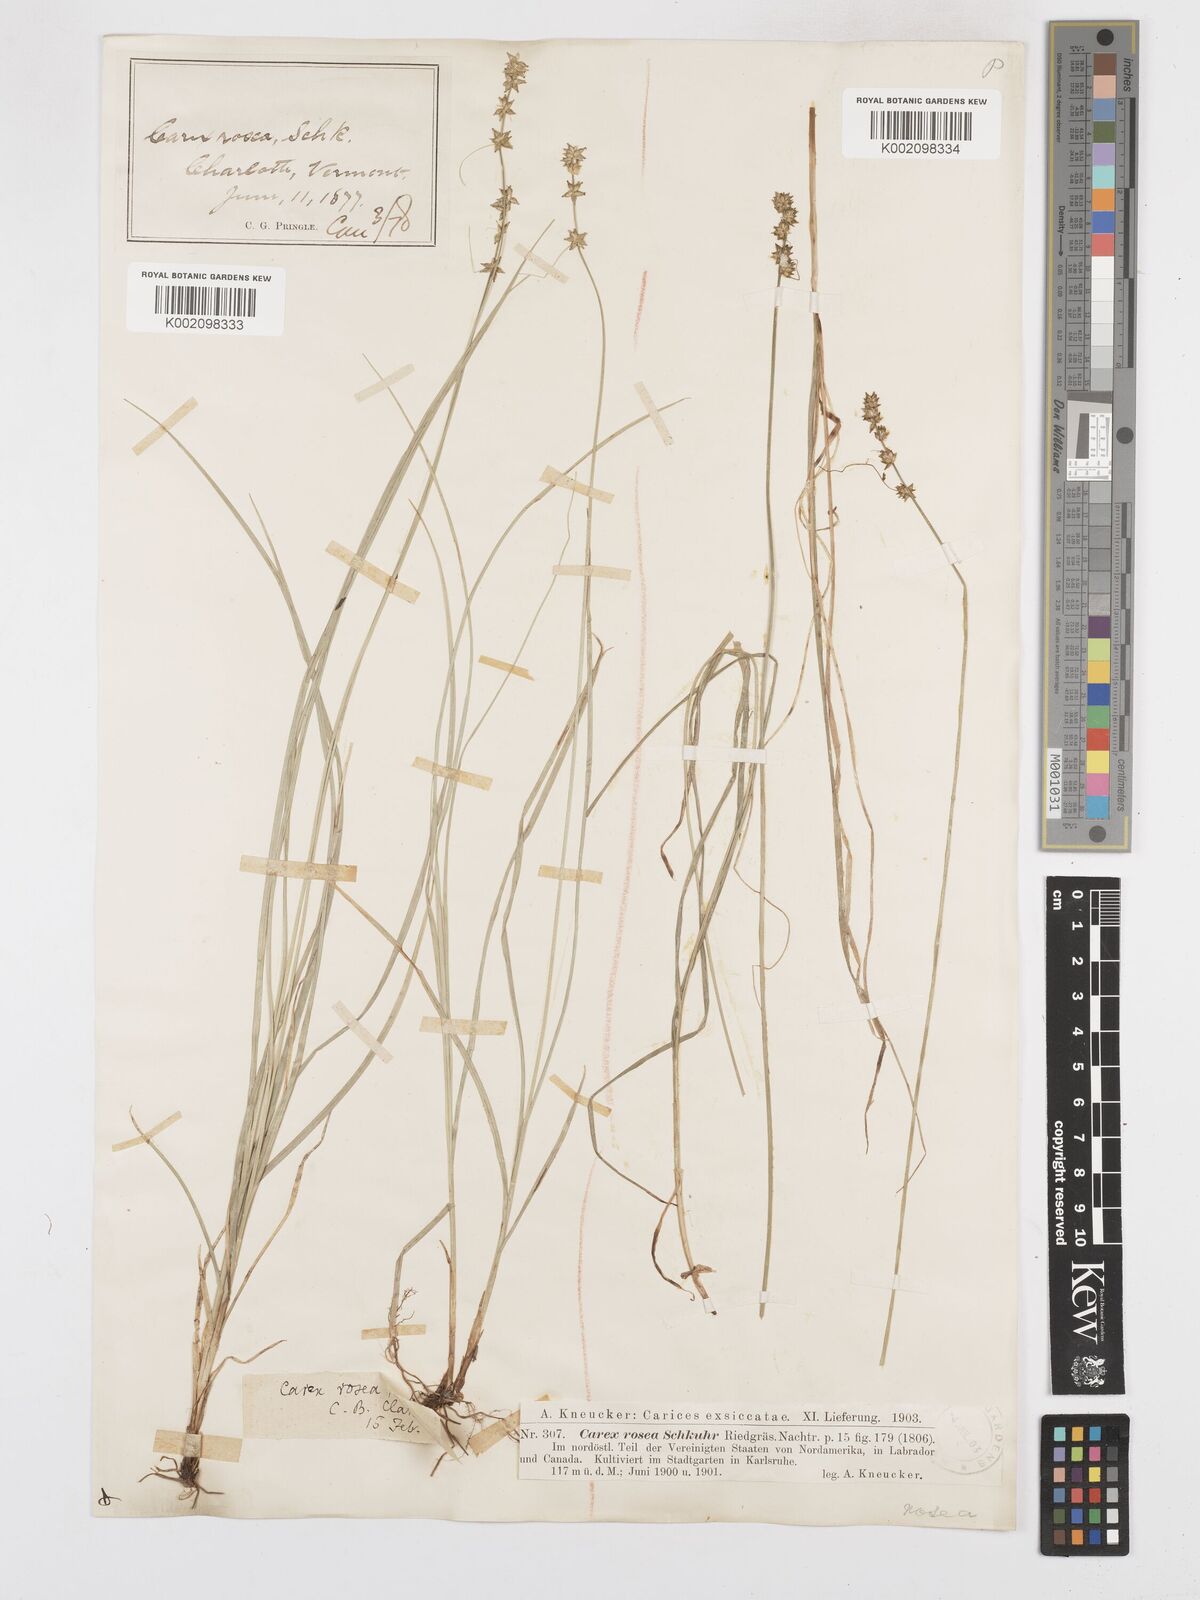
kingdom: Plantae
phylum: Tracheophyta
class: Liliopsida
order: Poales
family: Cyperaceae
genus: Carex
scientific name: Carex rosea
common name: Curly-styled wood sedge
